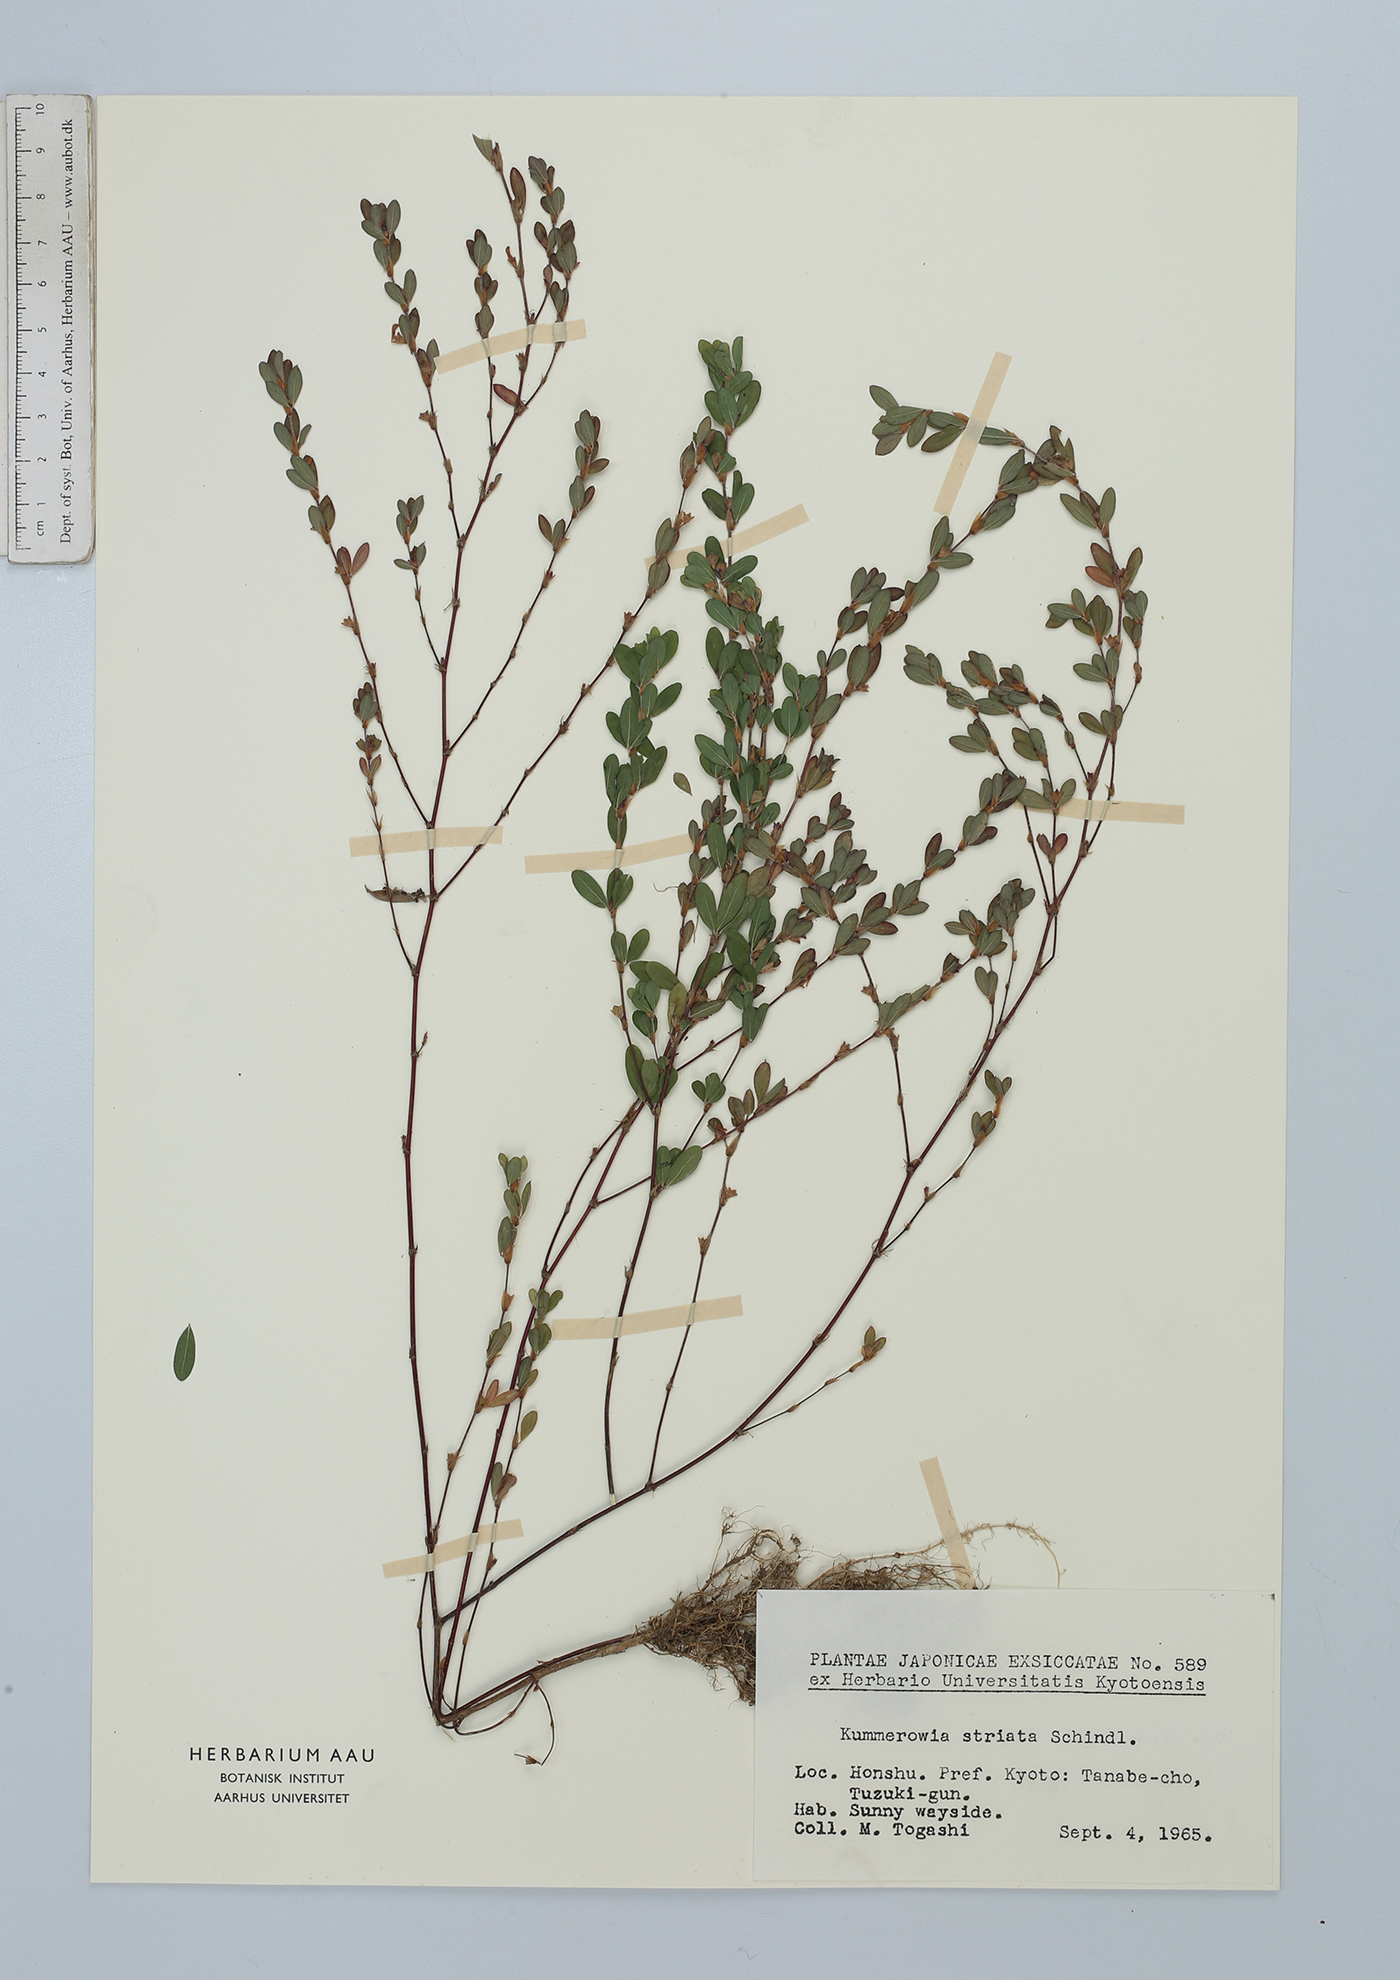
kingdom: Plantae
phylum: Tracheophyta
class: Magnoliopsida
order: Fabales
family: Fabaceae
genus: Kummerowia
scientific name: Kummerowia striata
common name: Japanese clover
